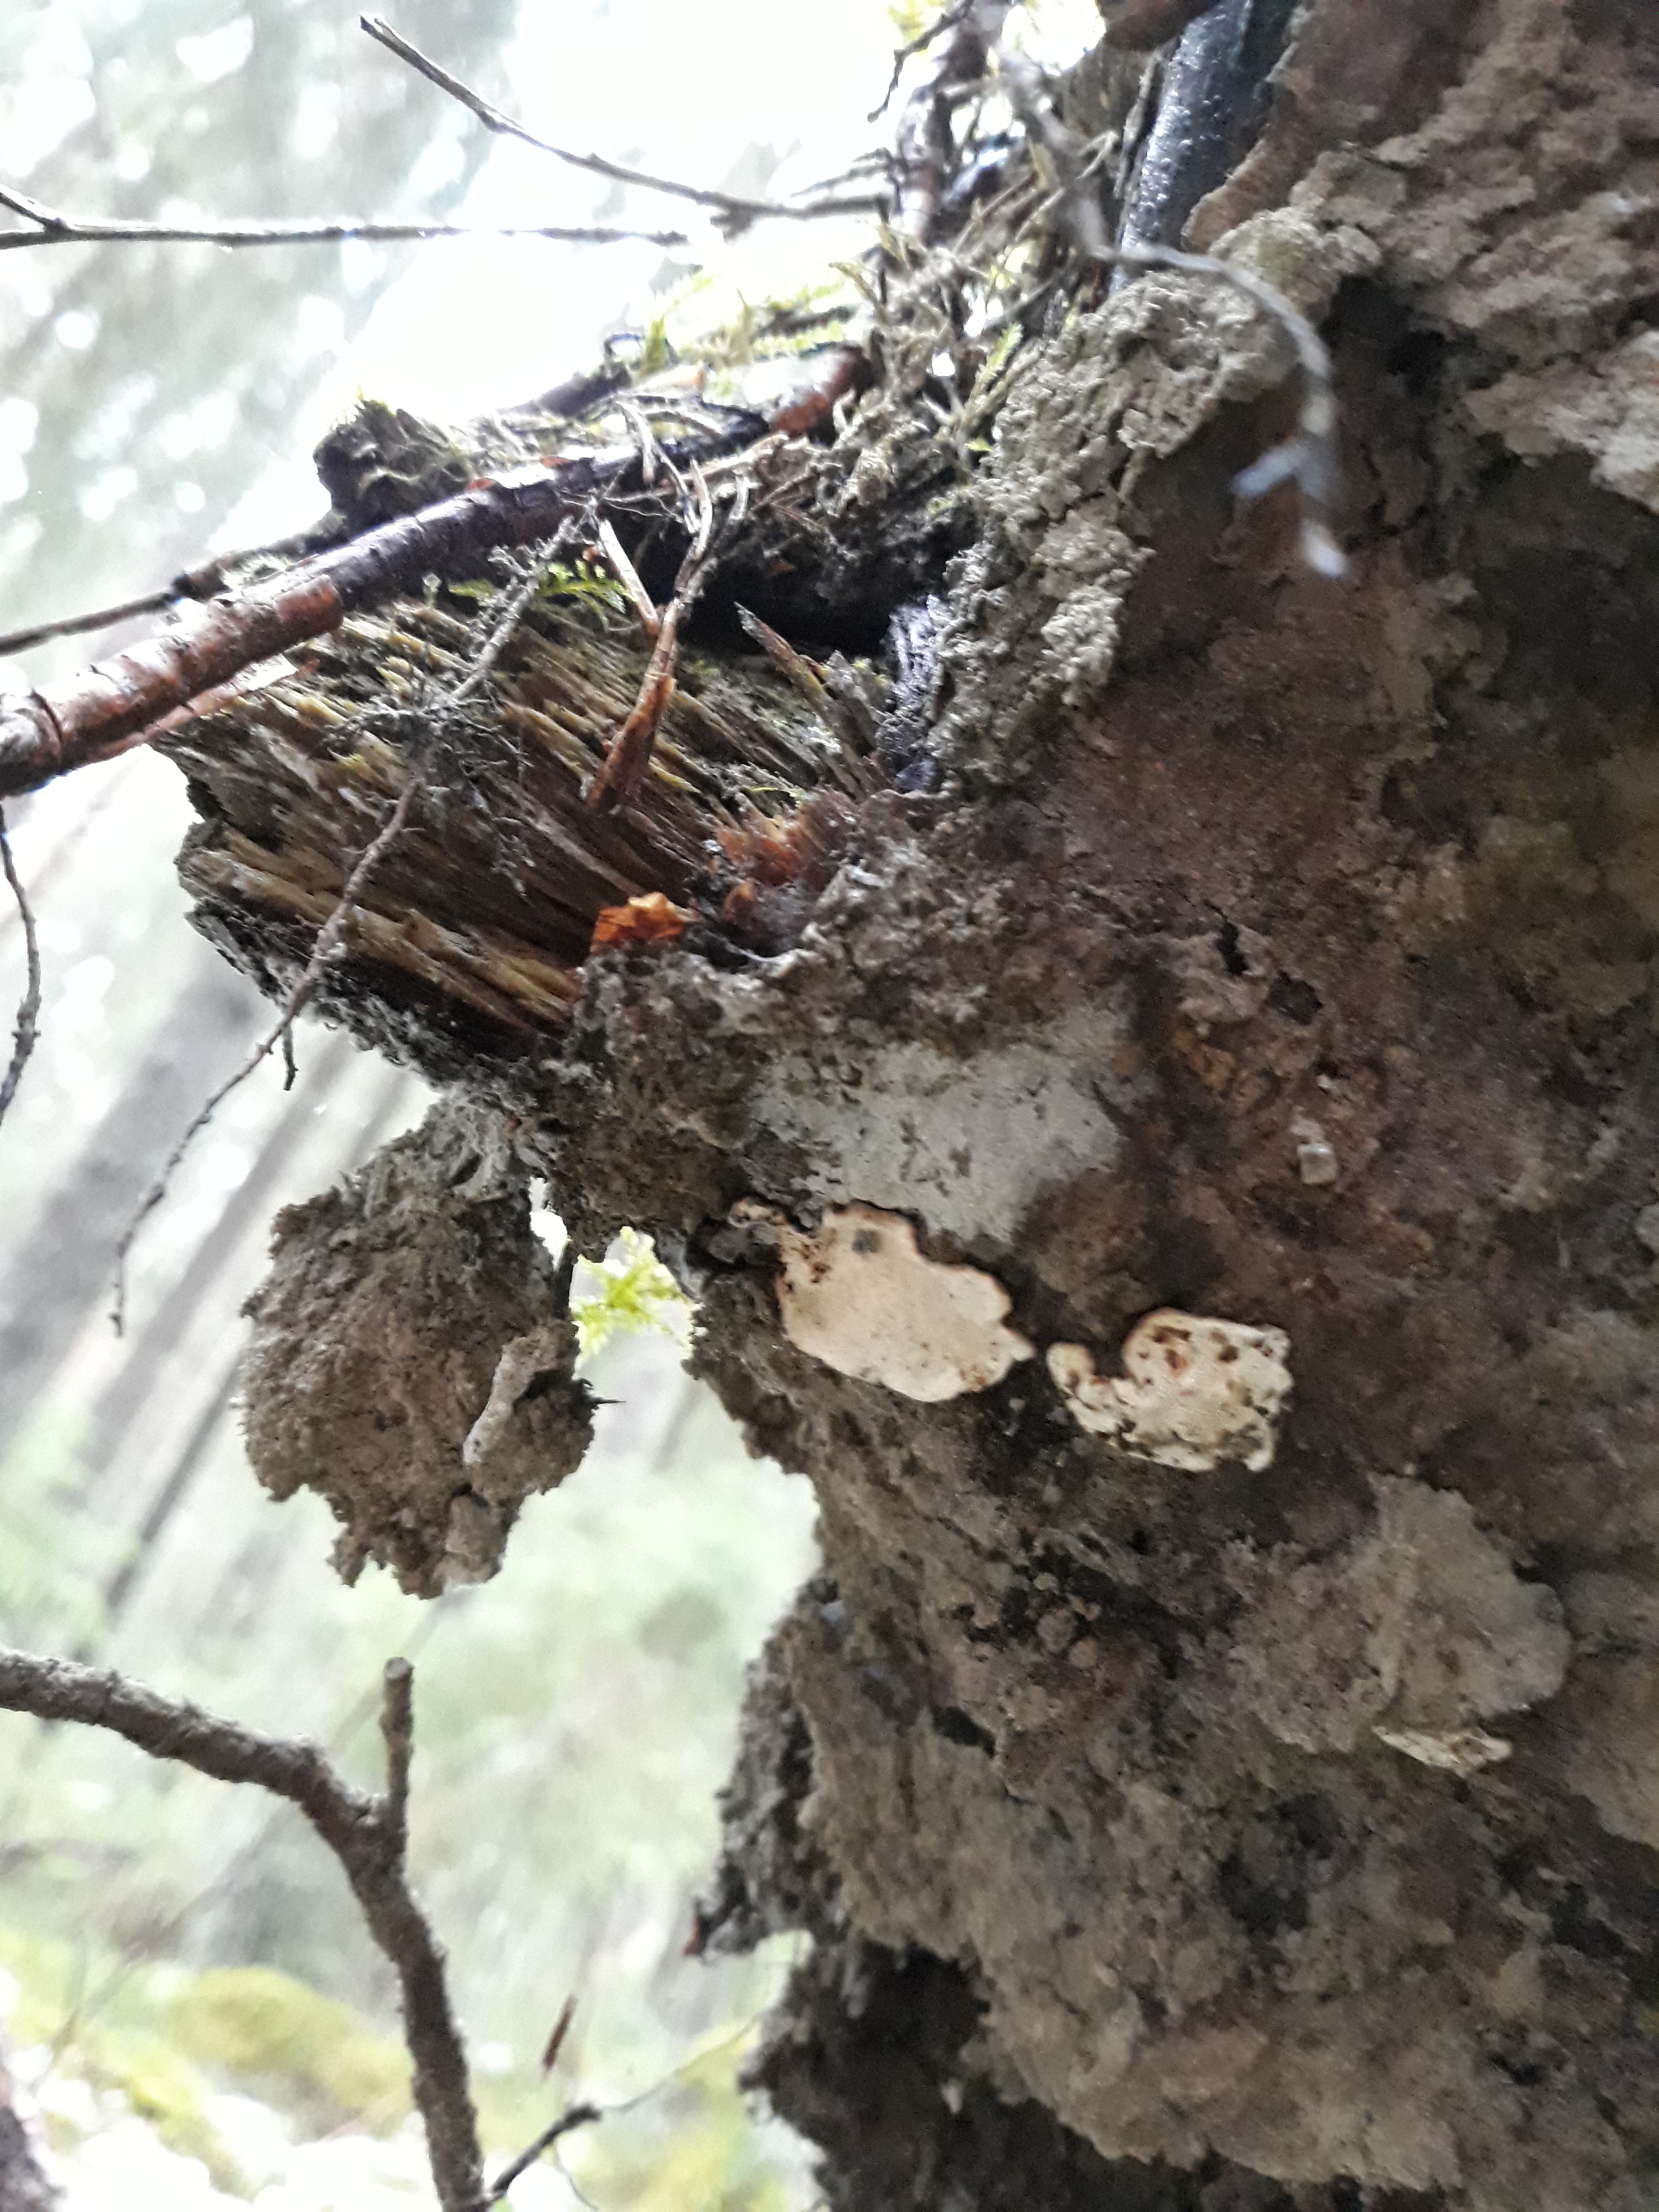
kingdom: Fungi
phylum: Basidiomycota
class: Agaricomycetes
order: Russulales
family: Bondarzewiaceae
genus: Heterobasidion
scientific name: Heterobasidion parviporum
